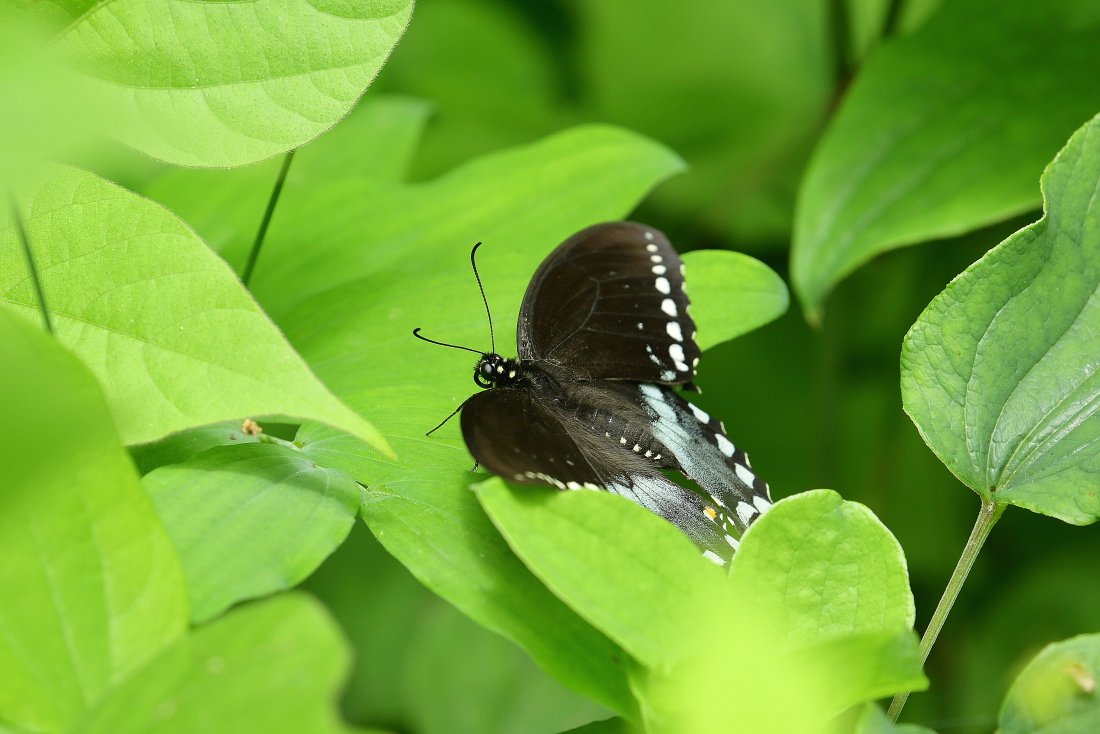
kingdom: Animalia
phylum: Arthropoda
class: Insecta
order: Lepidoptera
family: Papilionidae
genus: Pterourus
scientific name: Pterourus troilus
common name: Spicebush Swallowtail
